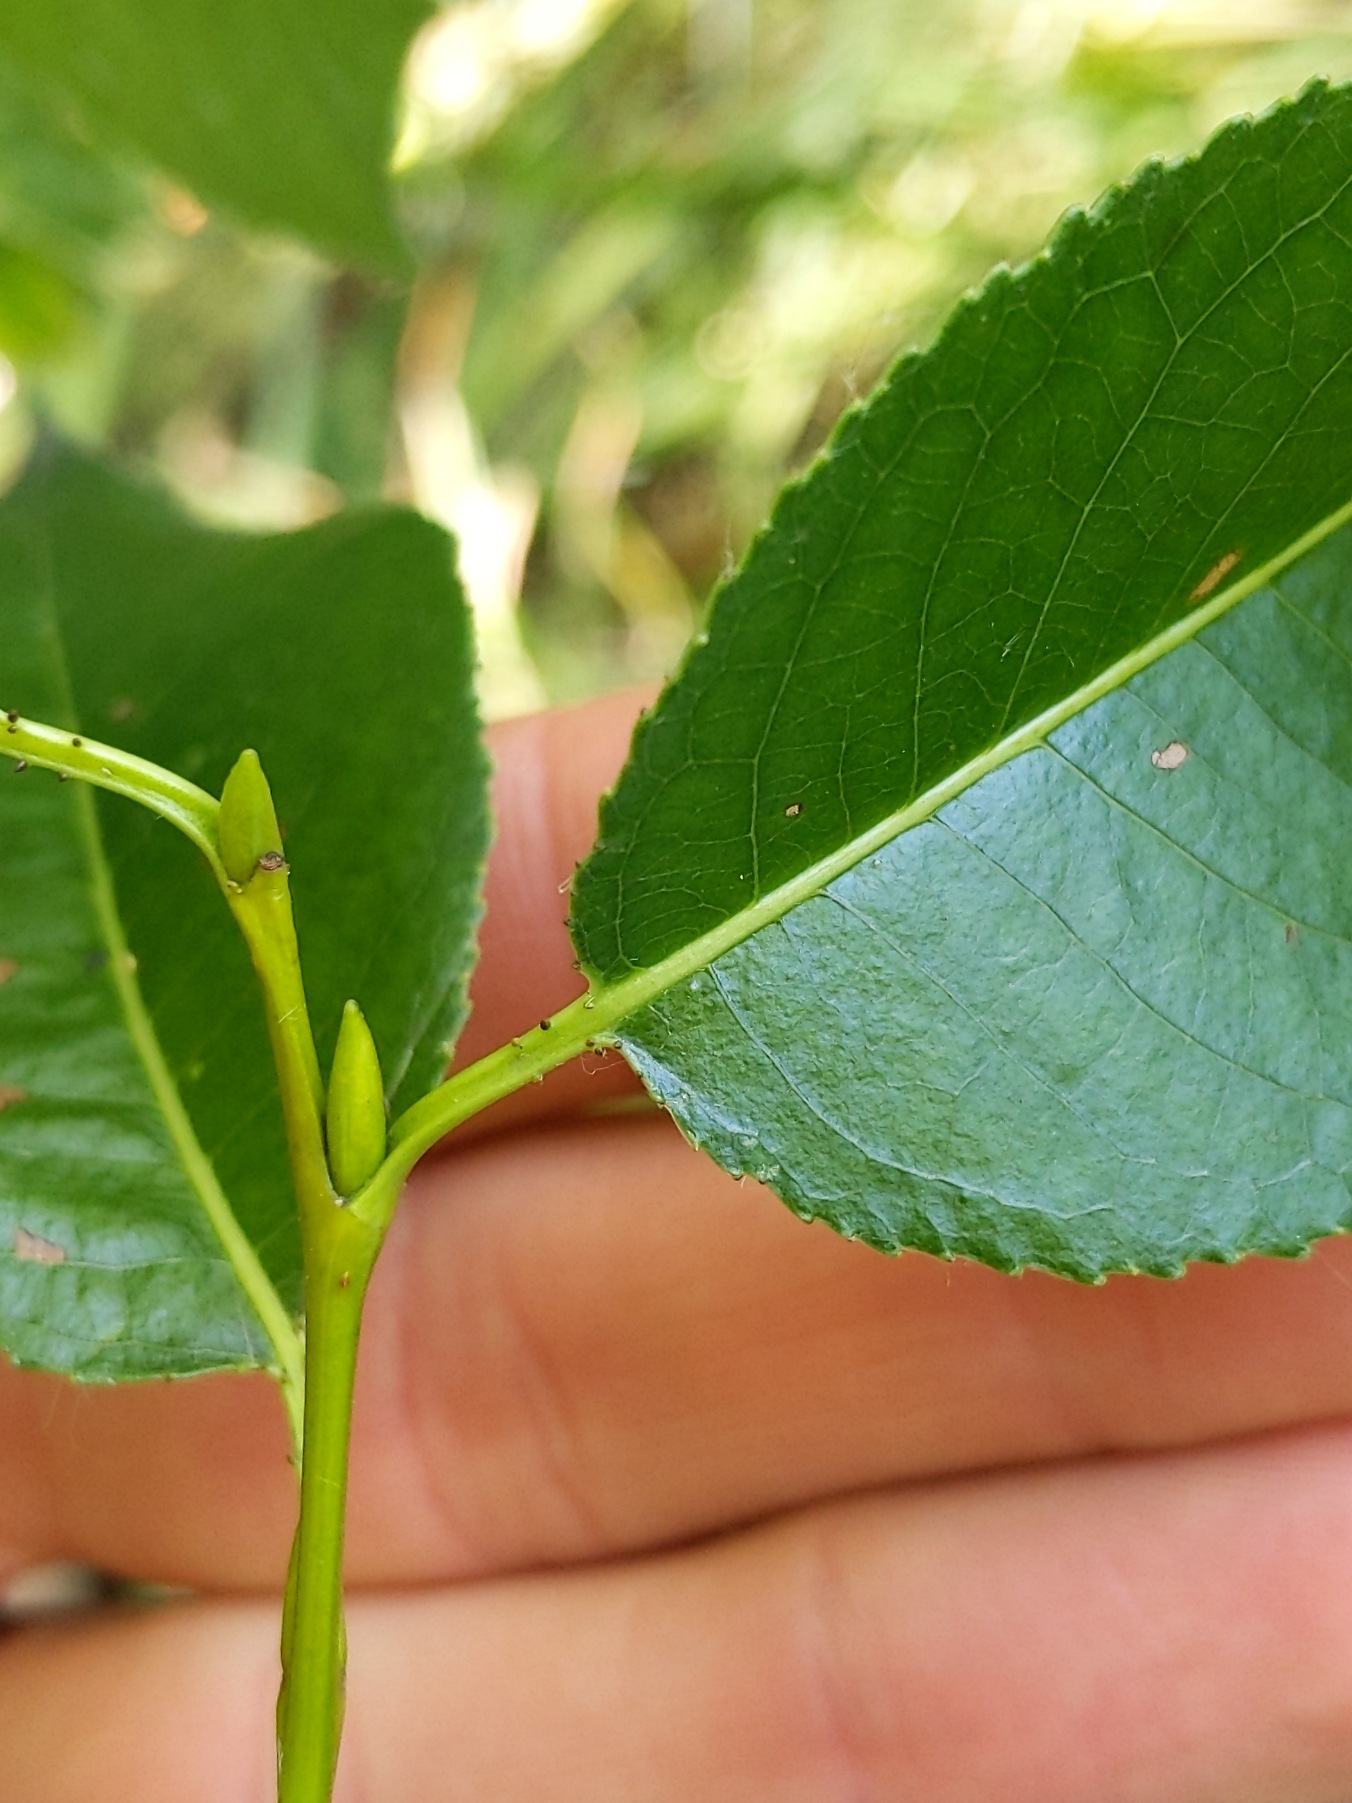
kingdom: Plantae
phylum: Tracheophyta
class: Magnoliopsida
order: Malpighiales
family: Salicaceae
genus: Salix
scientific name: Salix pentandra
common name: Femhannet pil
